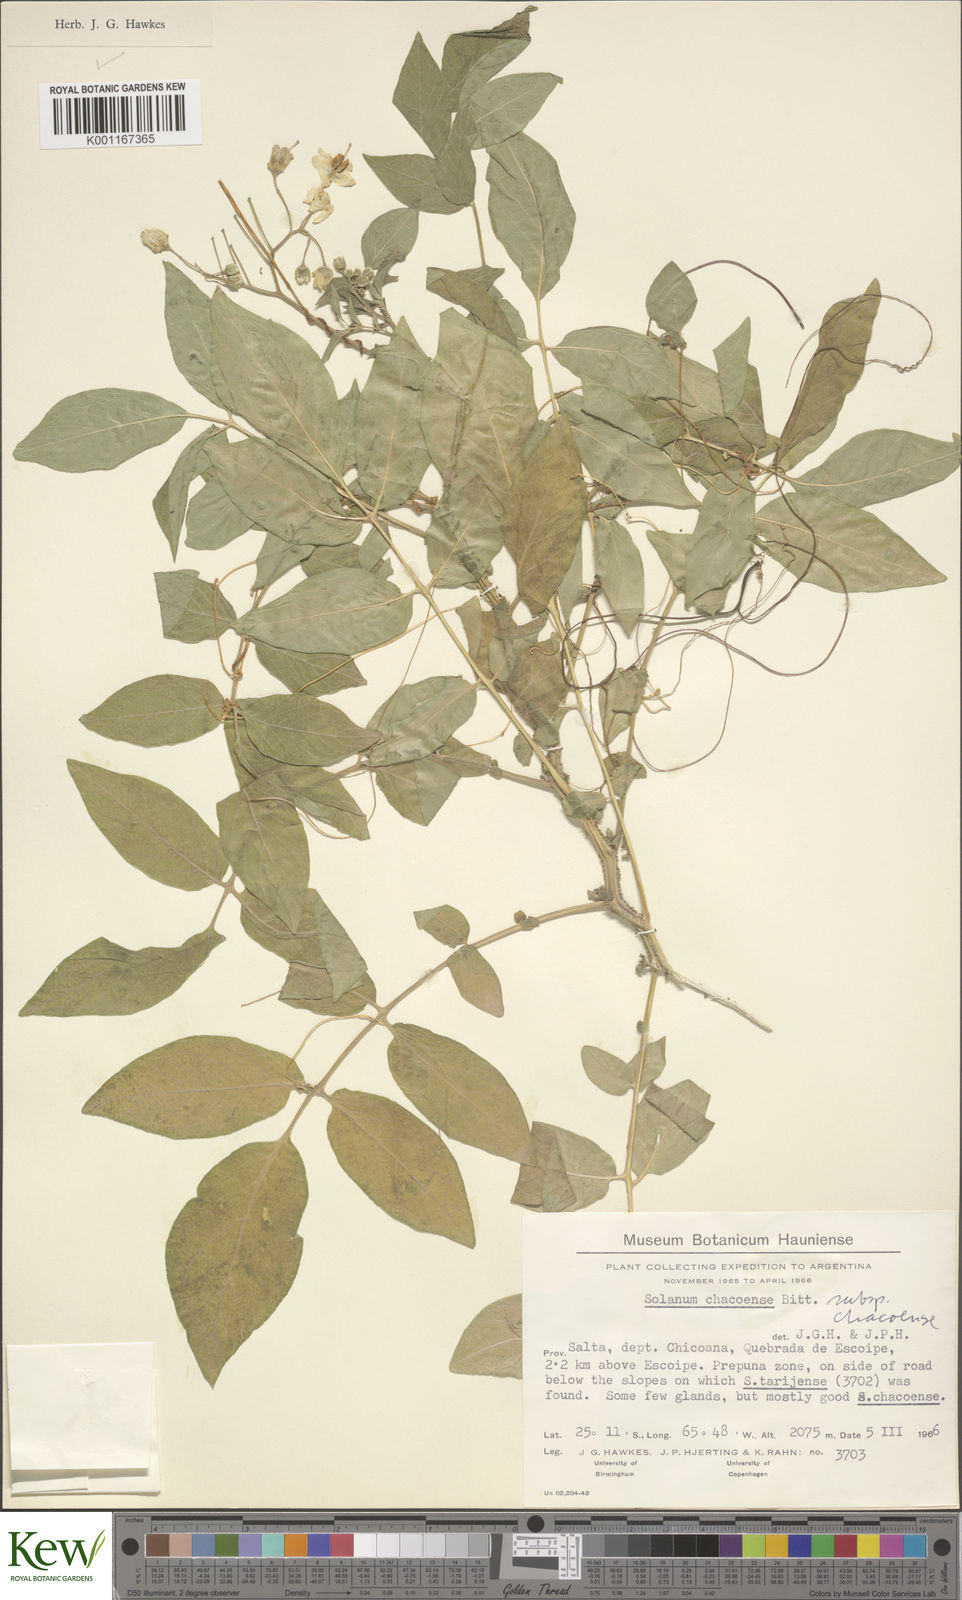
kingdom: Plantae
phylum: Tracheophyta
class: Magnoliopsida
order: Solanales
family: Solanaceae
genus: Solanum
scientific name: Solanum chacoense
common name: Chaco potato
